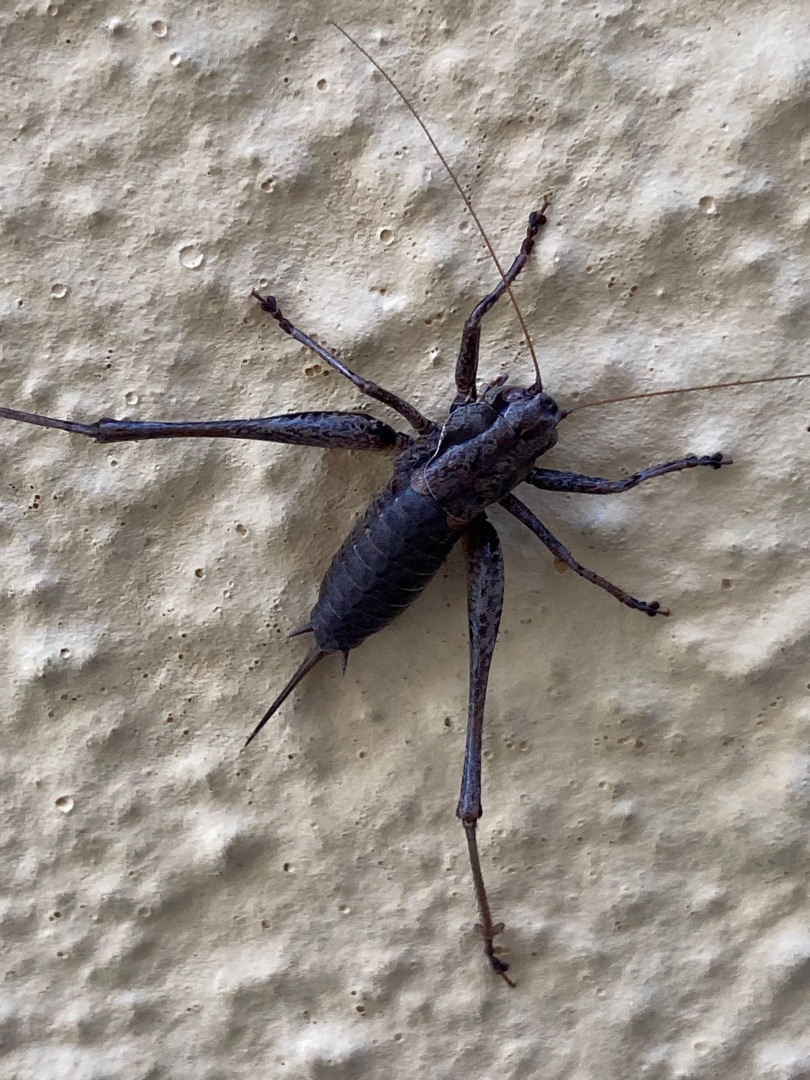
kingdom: Animalia
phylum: Arthropoda
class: Insecta
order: Orthoptera
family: Tettigoniidae
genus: Pholidoptera
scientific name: Pholidoptera griseoaptera
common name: Buskgræshoppe
